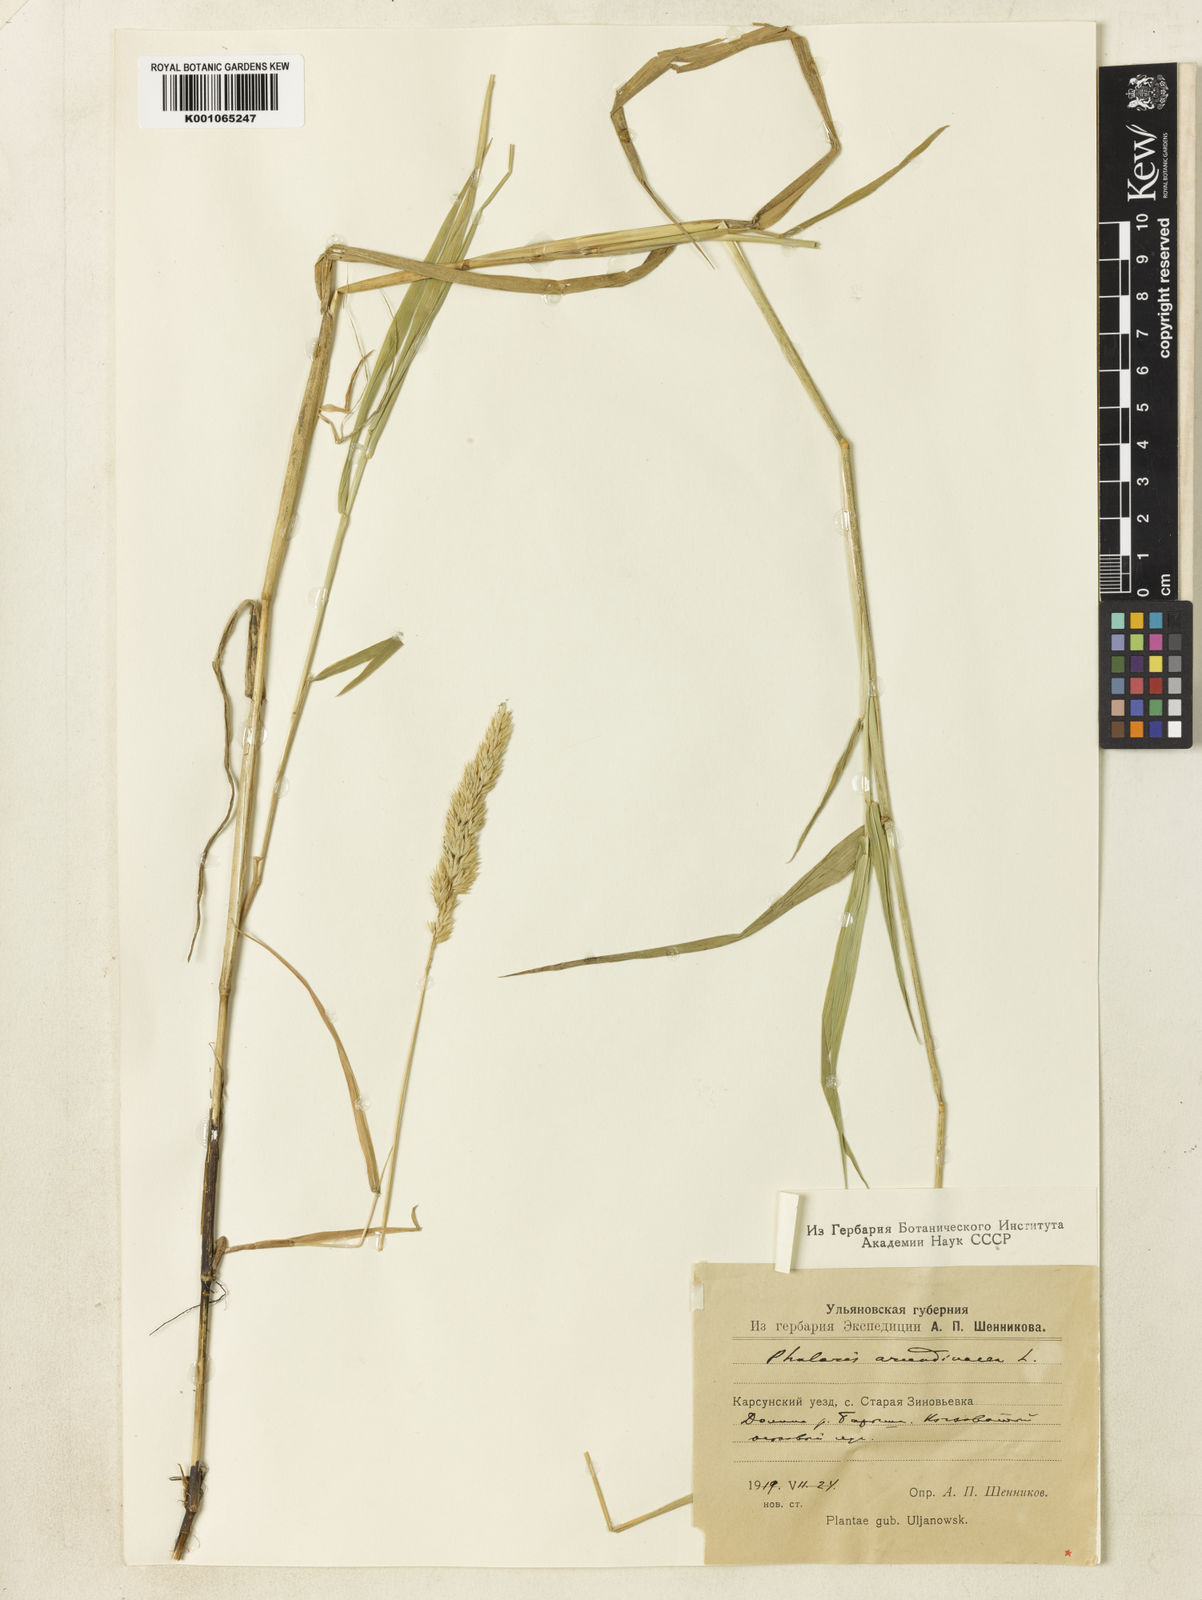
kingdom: Plantae
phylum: Tracheophyta
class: Liliopsida
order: Poales
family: Poaceae
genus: Phalaris
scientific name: Phalaris arundinacea
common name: Reed canary-grass
